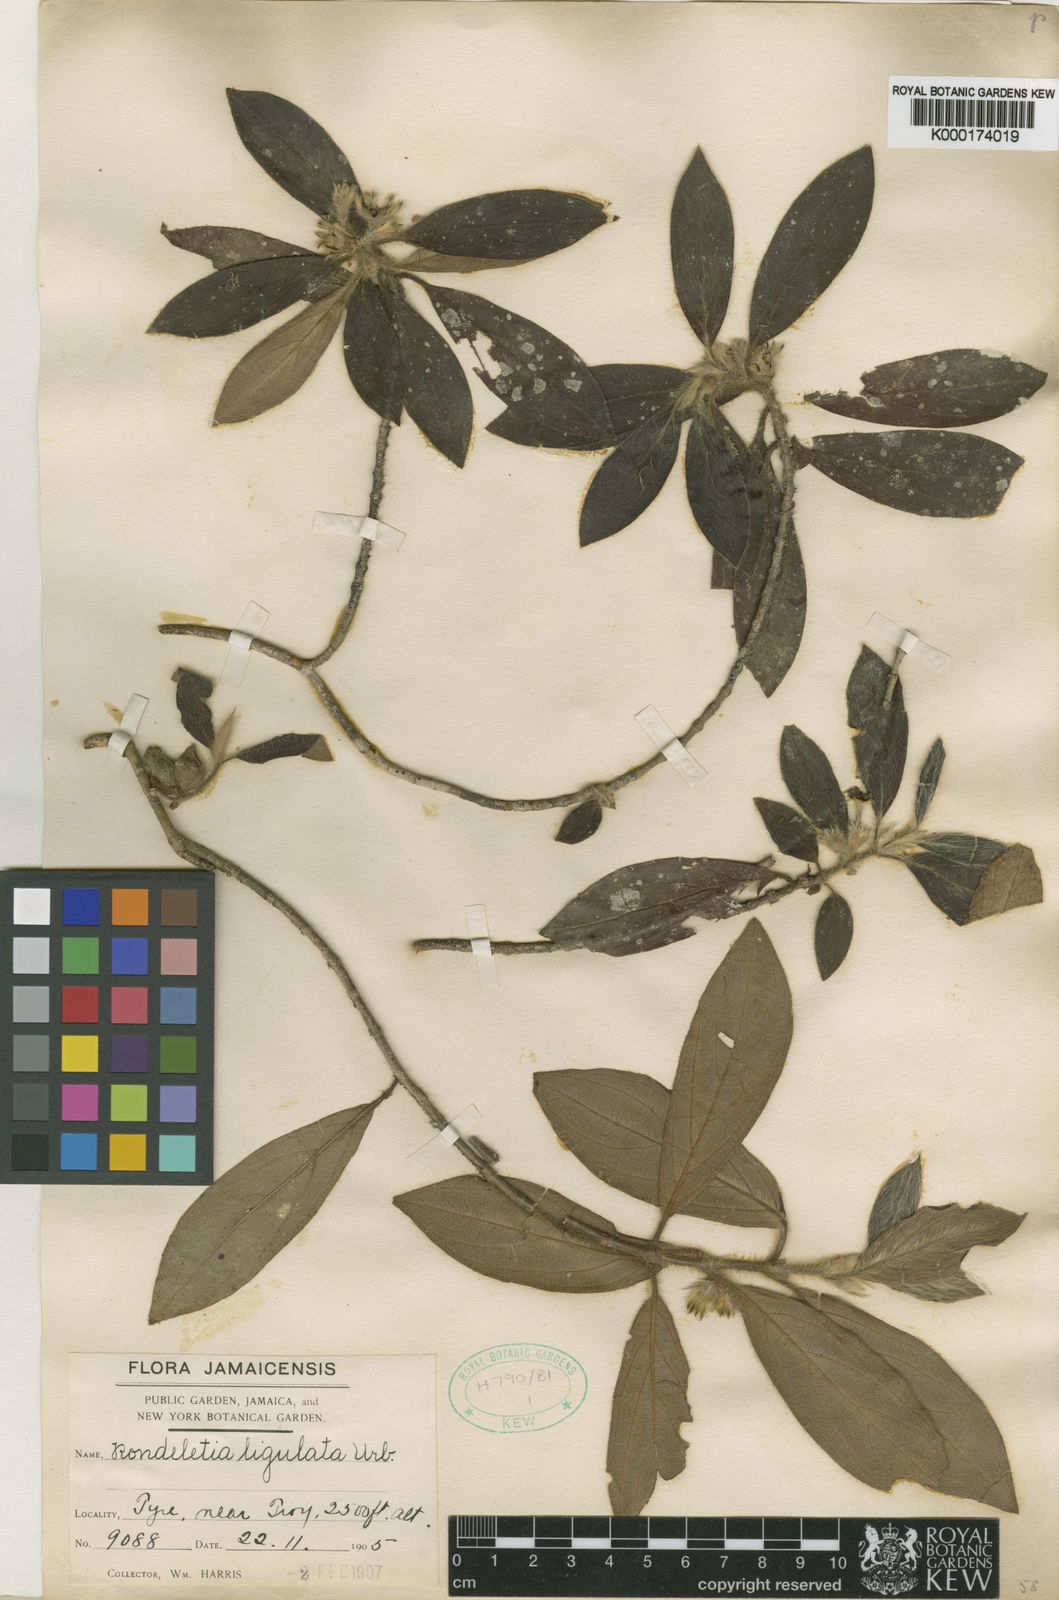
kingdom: Plantae
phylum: Tracheophyta
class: Magnoliopsida
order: Gentianales
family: Rubiaceae
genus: Rondeletia
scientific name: Rondeletia ligulata
